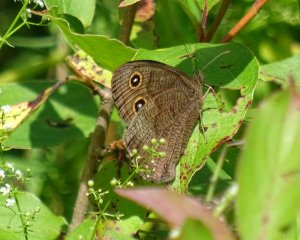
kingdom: Animalia
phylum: Arthropoda
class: Insecta
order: Lepidoptera
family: Nymphalidae
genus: Cercyonis
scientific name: Cercyonis pegala
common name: Common Wood-Nymph
